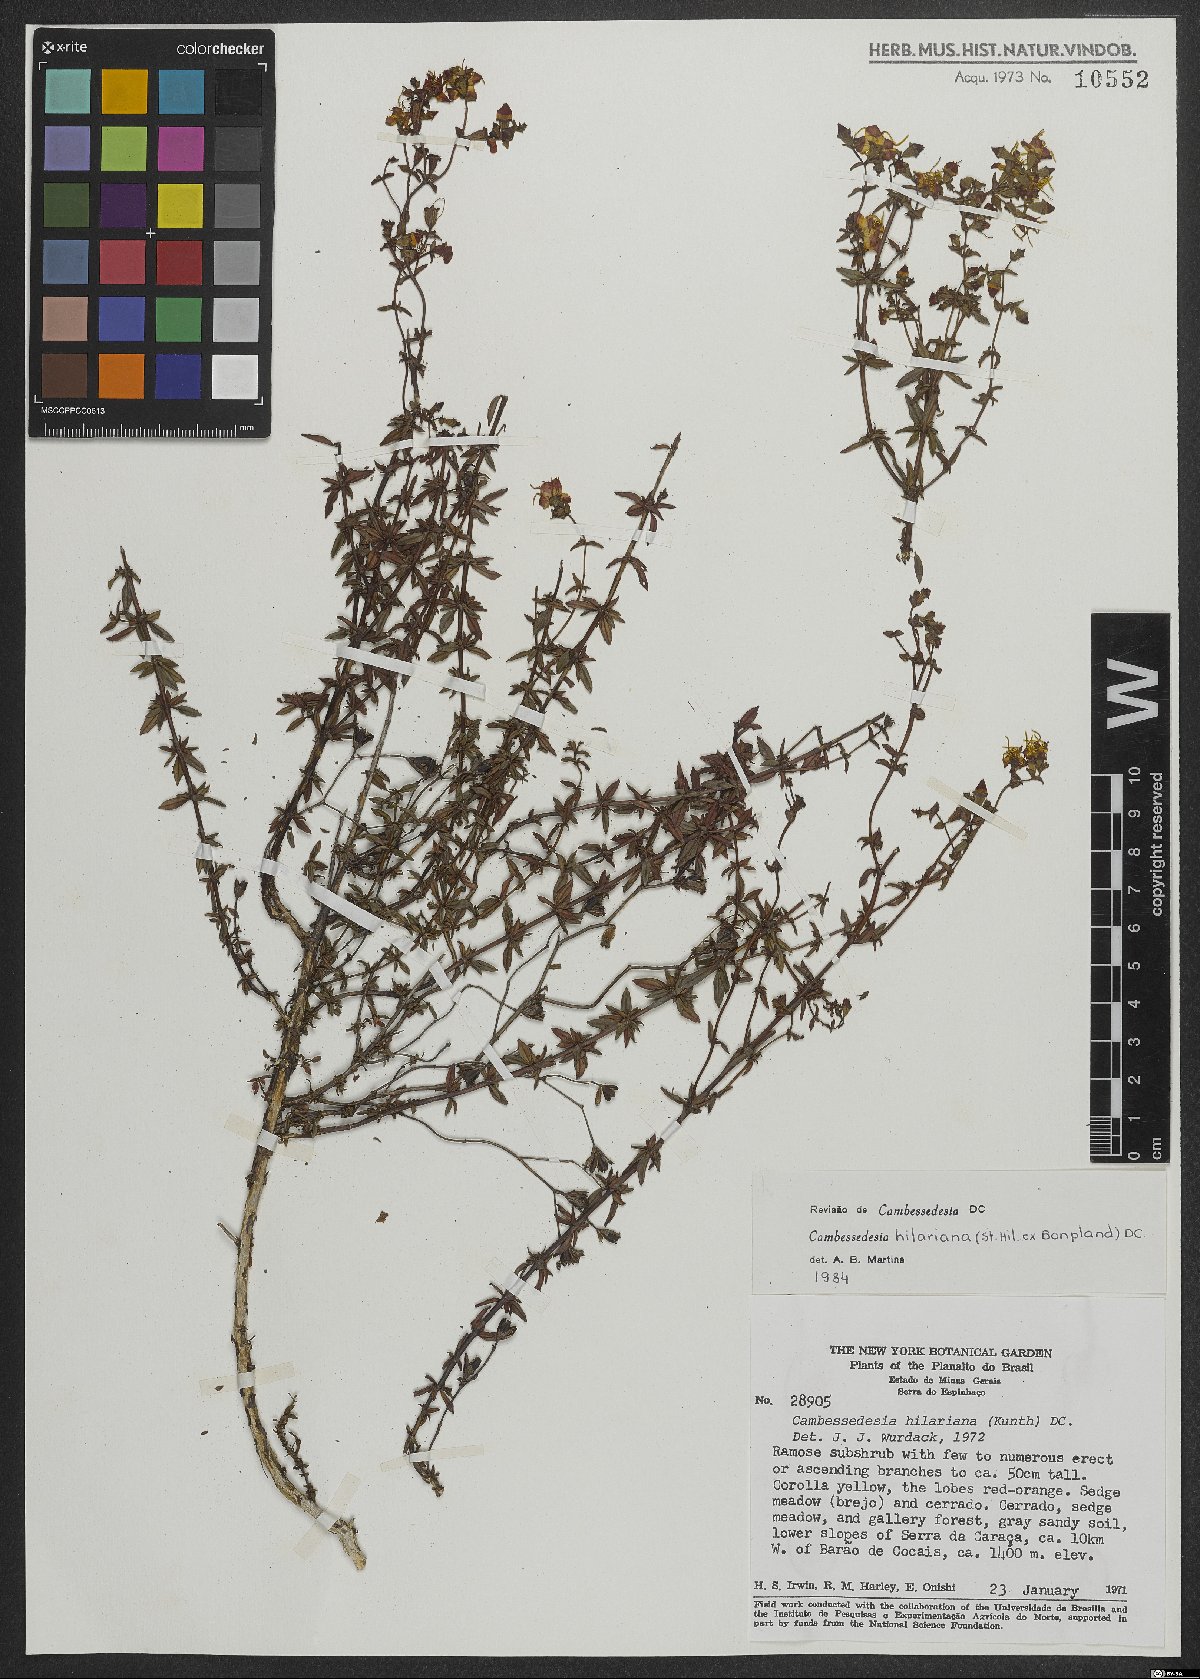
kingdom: Plantae
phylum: Tracheophyta
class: Magnoliopsida
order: Myrtales
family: Melastomataceae
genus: Cambessedesia
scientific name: Cambessedesia hilariana
